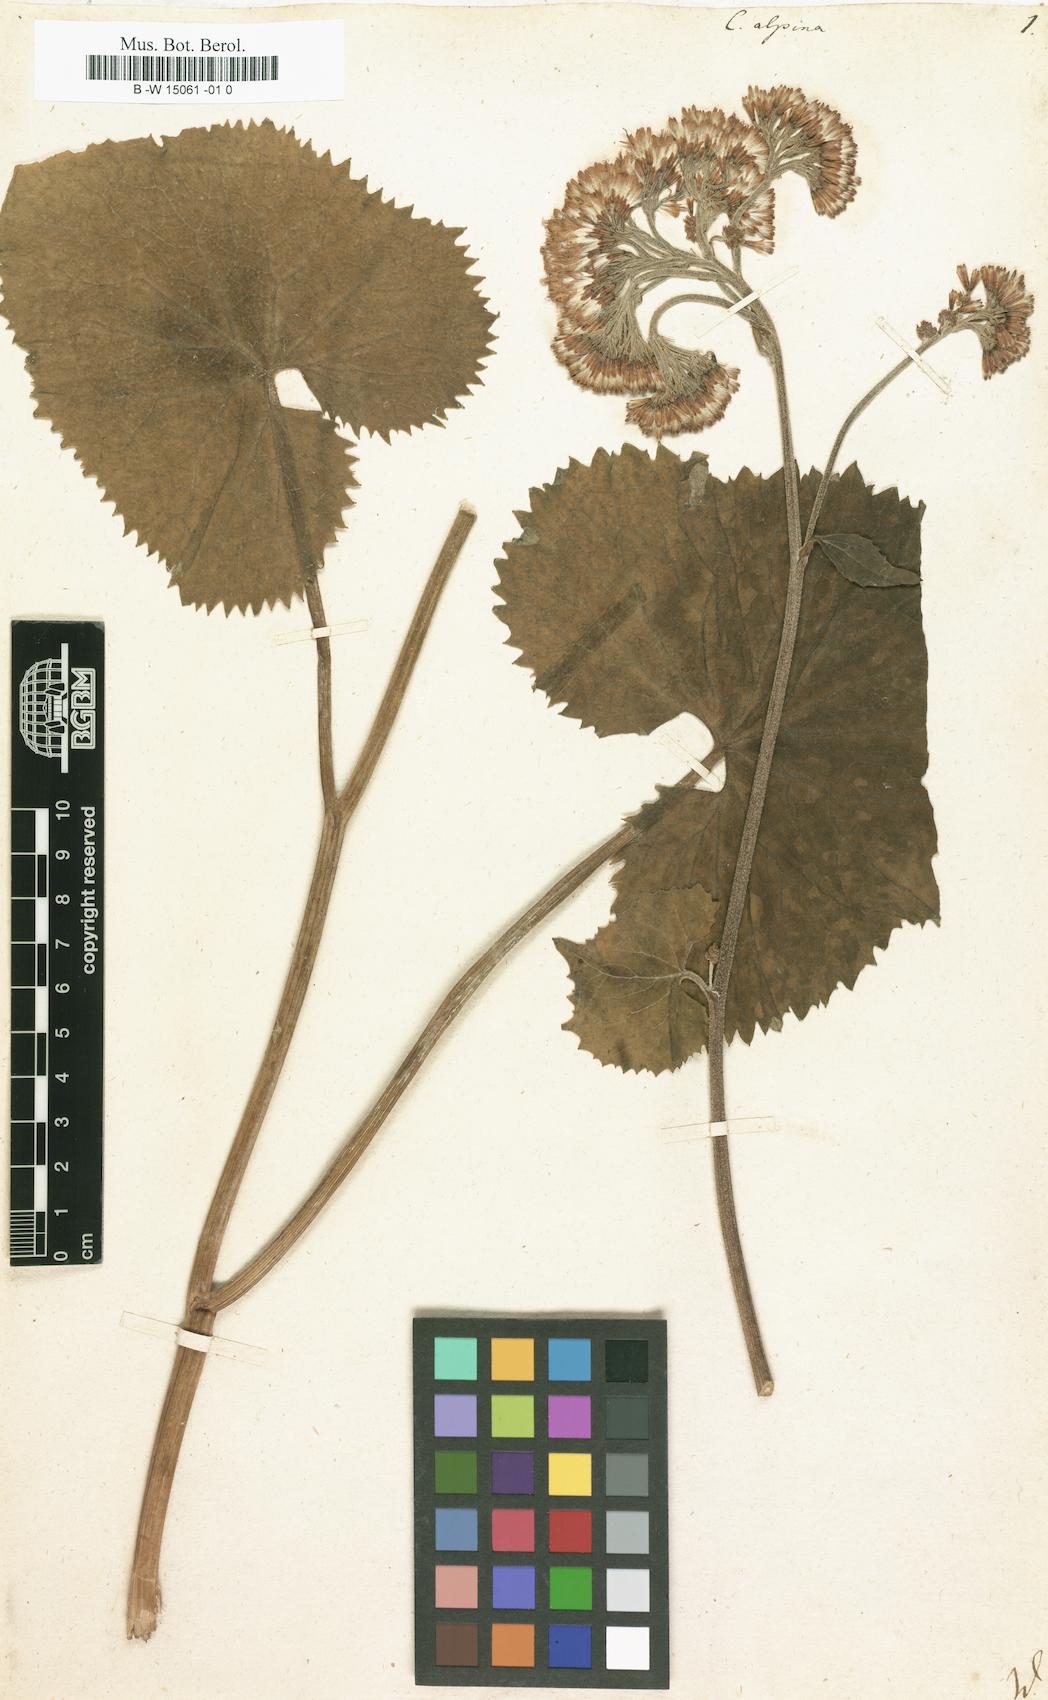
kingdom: Plantae
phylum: Tracheophyta
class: Magnoliopsida
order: Asterales
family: Asteraceae
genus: Adenostyles
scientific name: Adenostyles alpina
